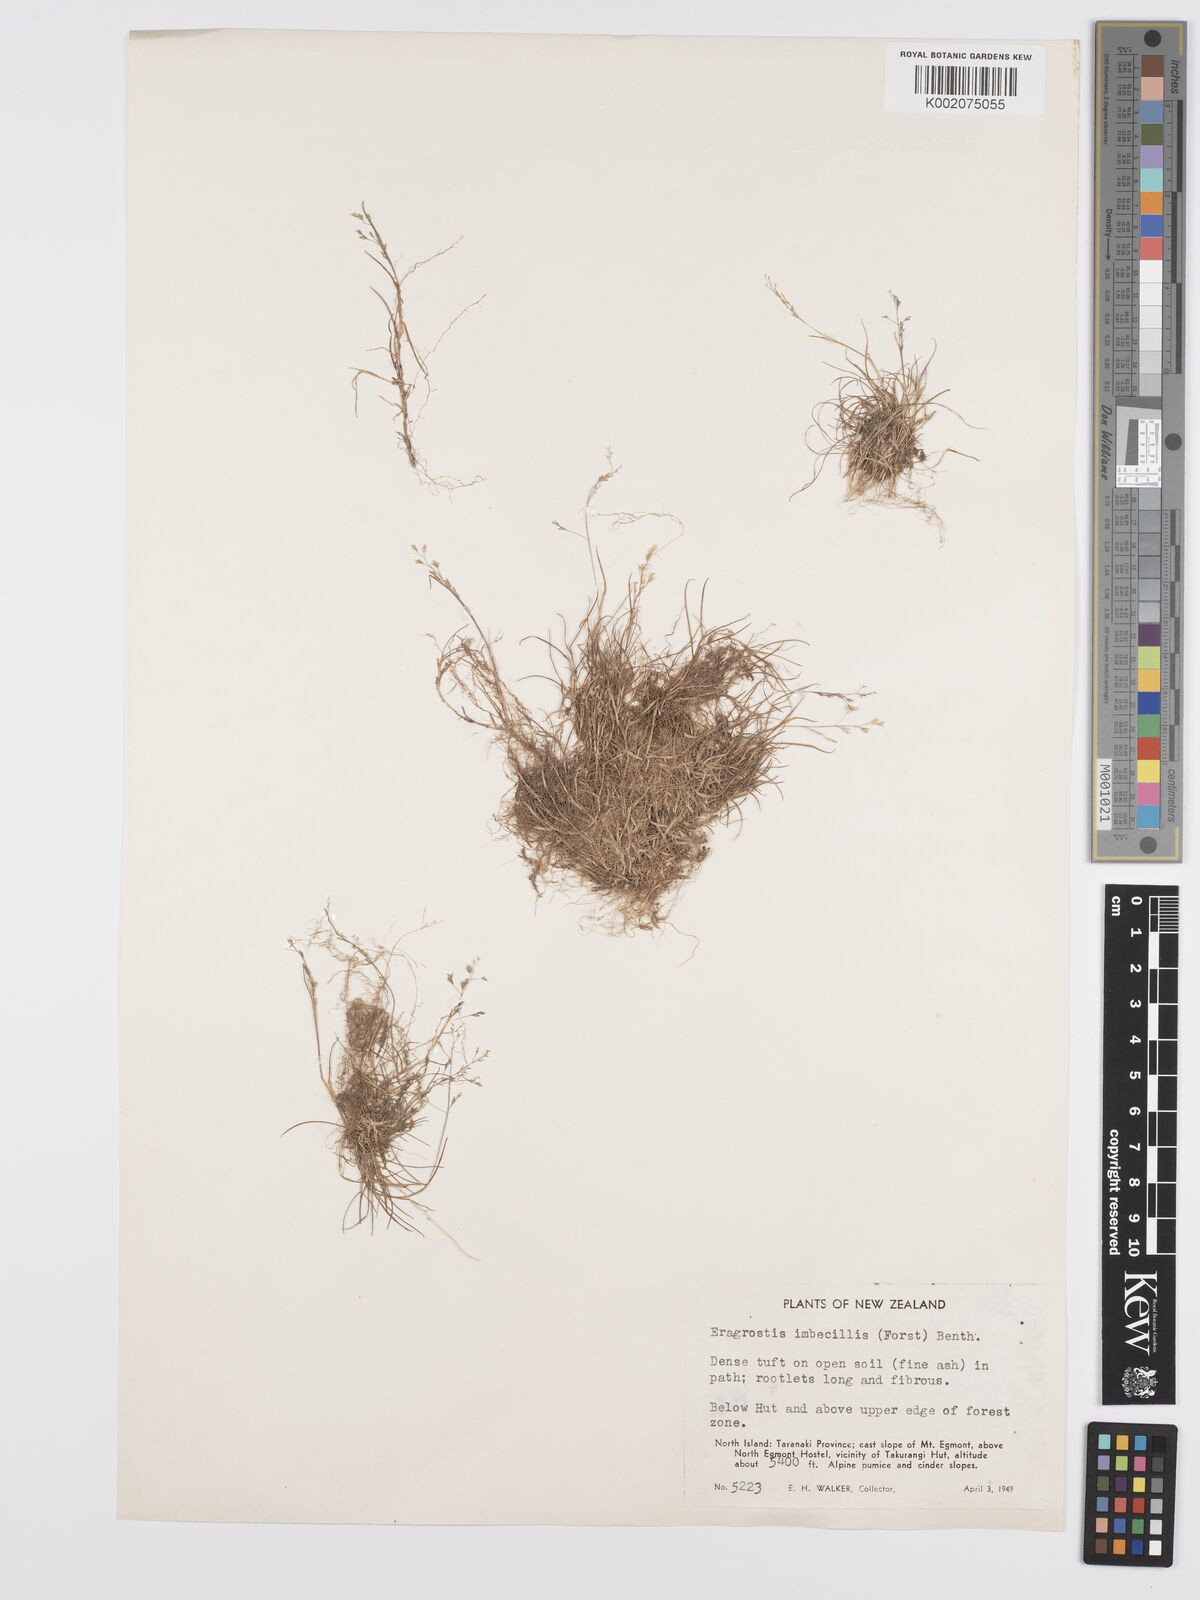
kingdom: Plantae
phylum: Tracheophyta
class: Liliopsida
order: Poales
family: Poaceae
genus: Poa
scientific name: Poa imbecilla
